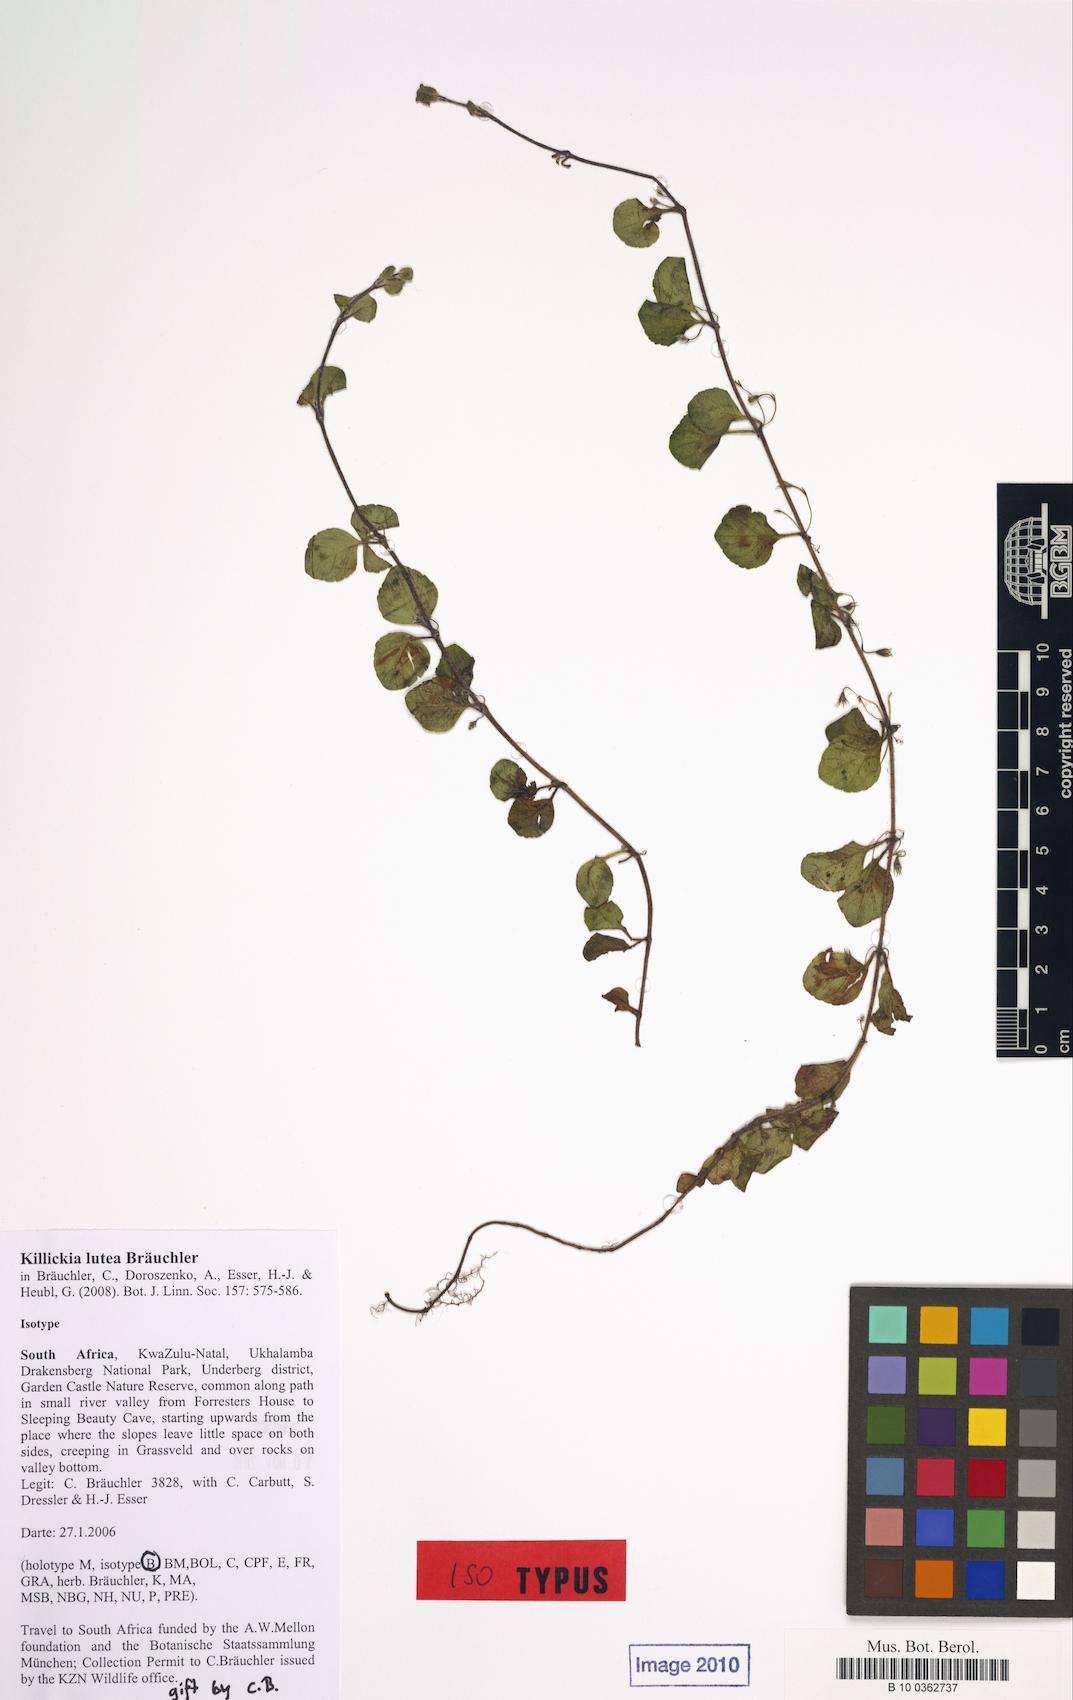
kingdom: Plantae
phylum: Tracheophyta
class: Magnoliopsida
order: Lamiales
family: Lamiaceae
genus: Killickia
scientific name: Killickia lutea
